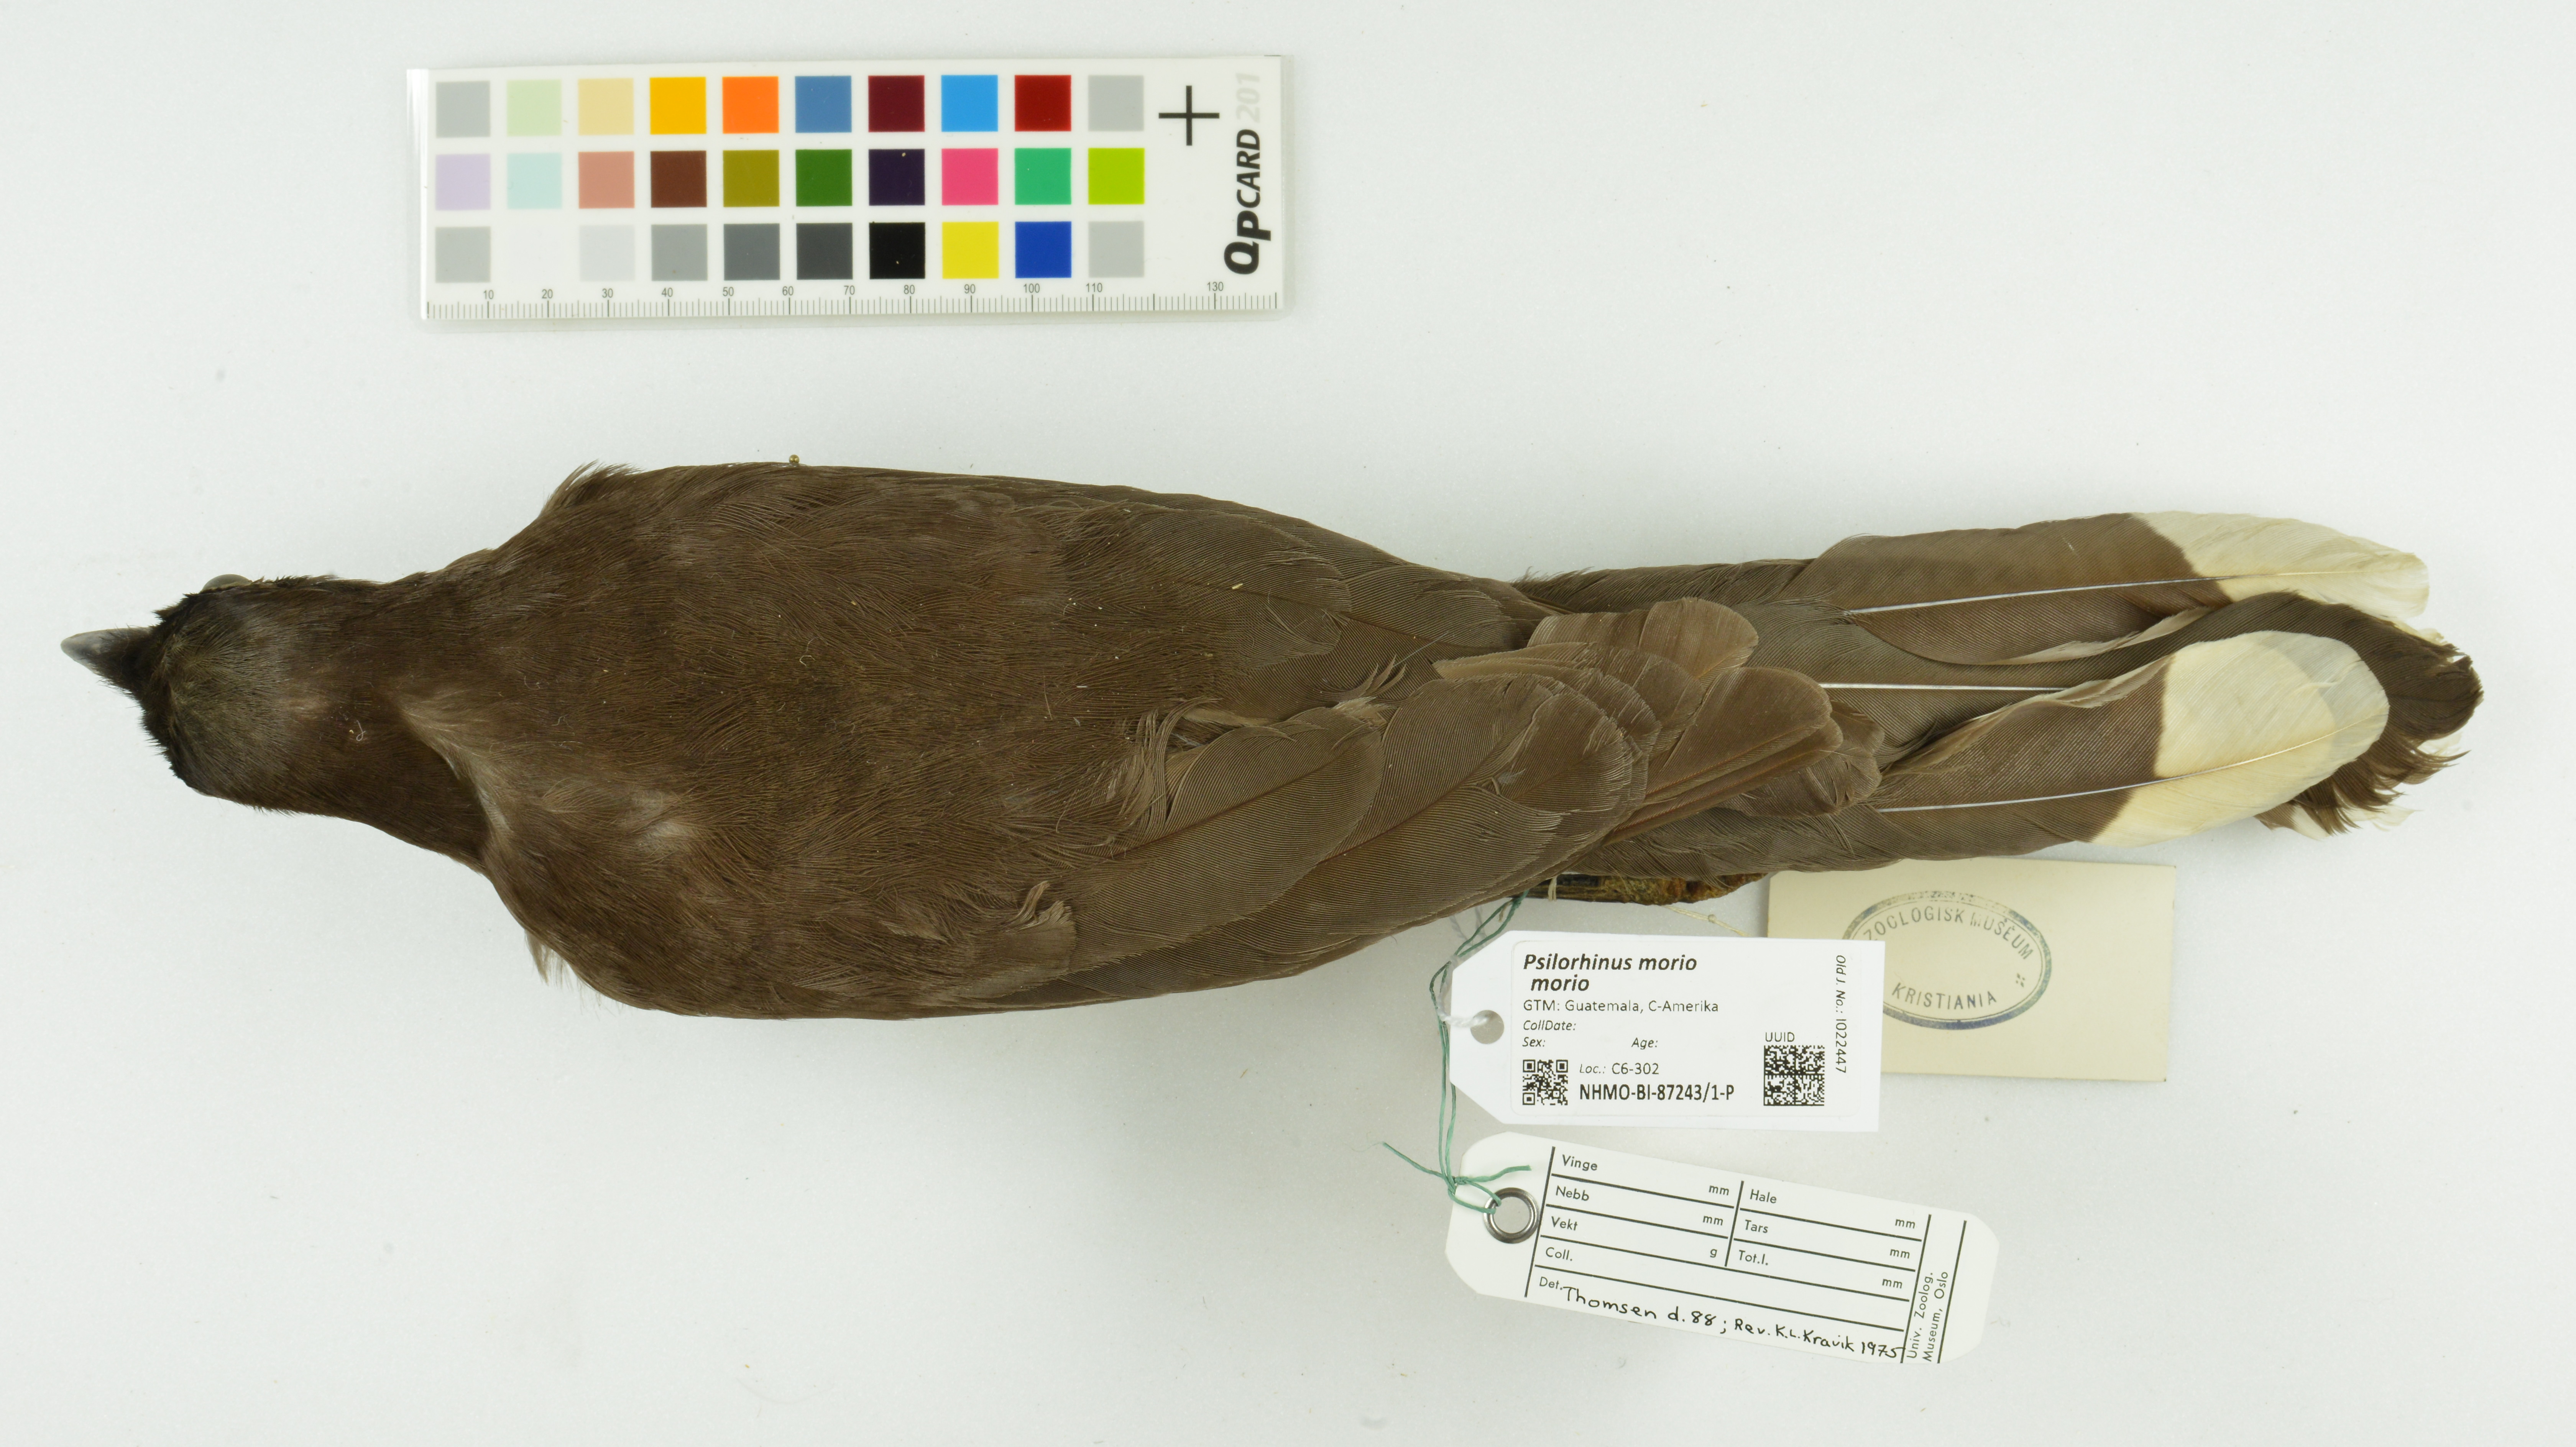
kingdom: Animalia
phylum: Chordata
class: Aves
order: Passeriformes
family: Corvidae
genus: Psilorhinus
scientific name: Psilorhinus morio
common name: Brown jay
